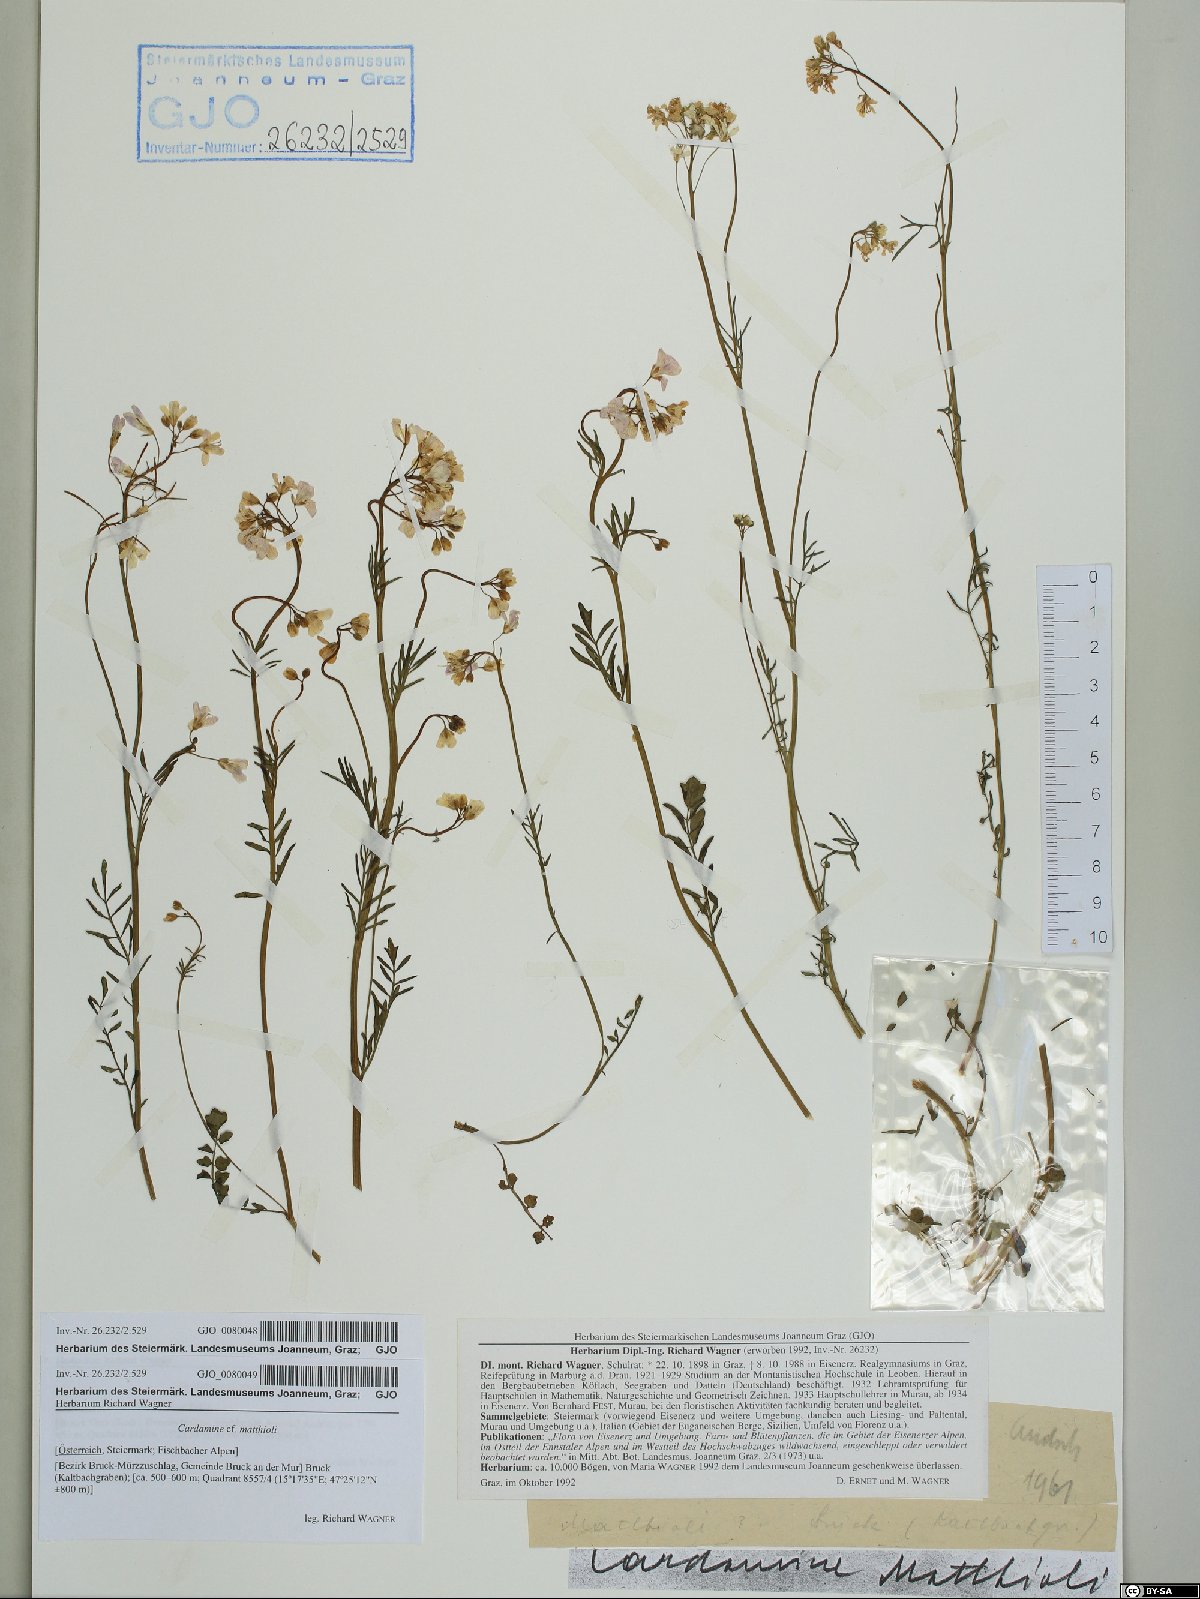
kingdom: Plantae
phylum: Tracheophyta
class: Magnoliopsida
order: Brassicales
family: Brassicaceae
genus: Cardamine
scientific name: Cardamine matthioli
